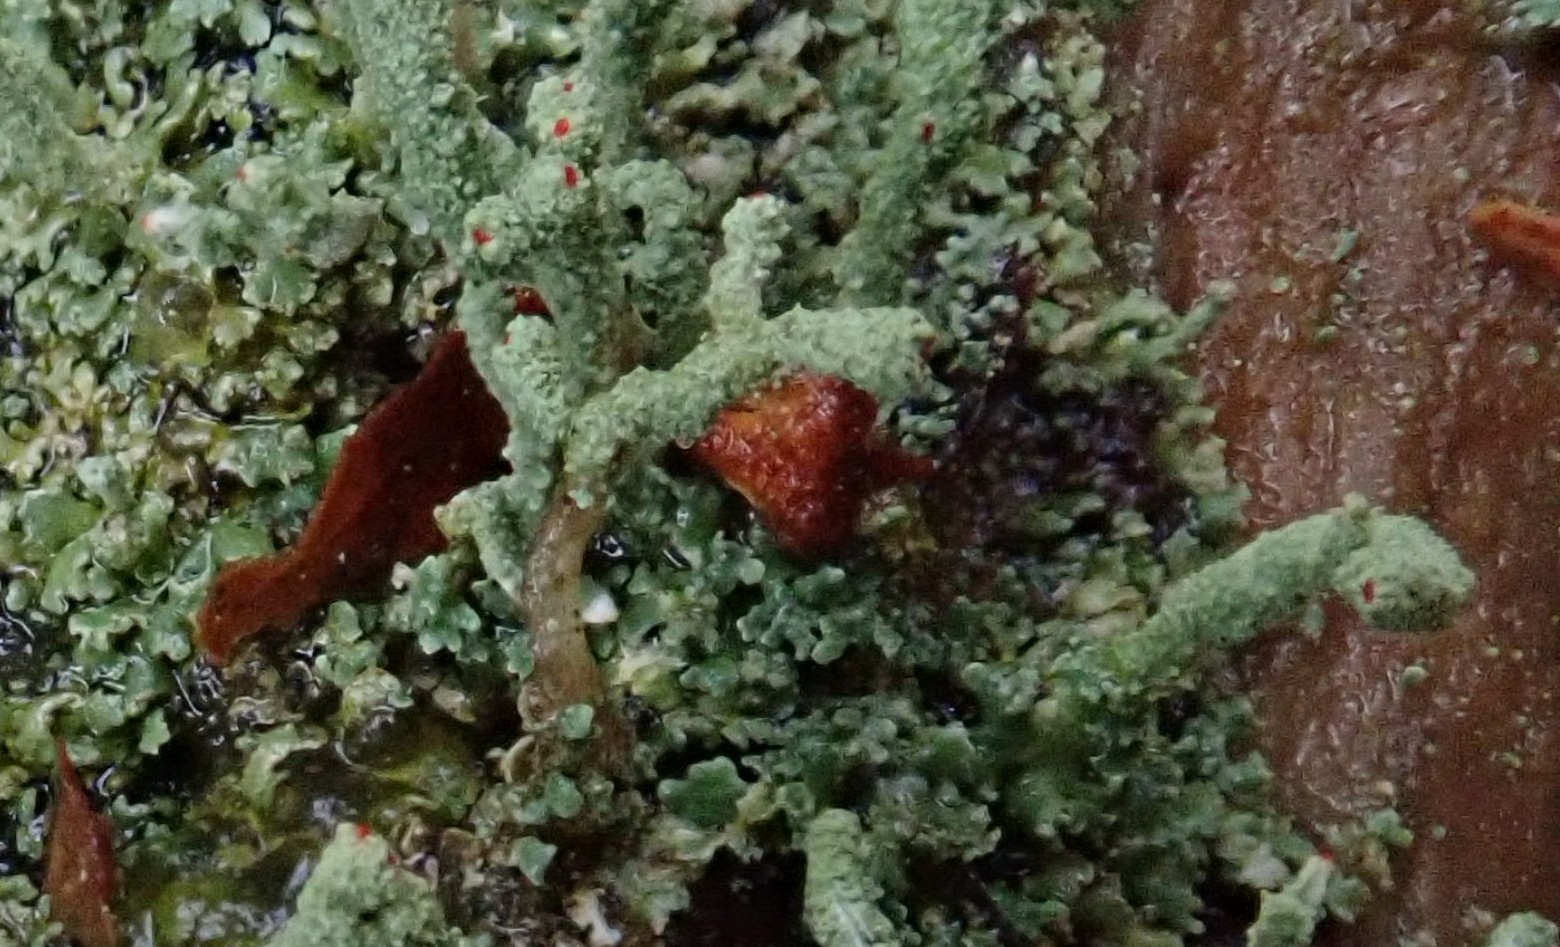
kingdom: Fungi
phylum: Ascomycota
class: Lecanoromycetes
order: Lecanorales
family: Cladoniaceae
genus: Cladonia
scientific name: Cladonia polydactyla
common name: vifte-bægerlav
